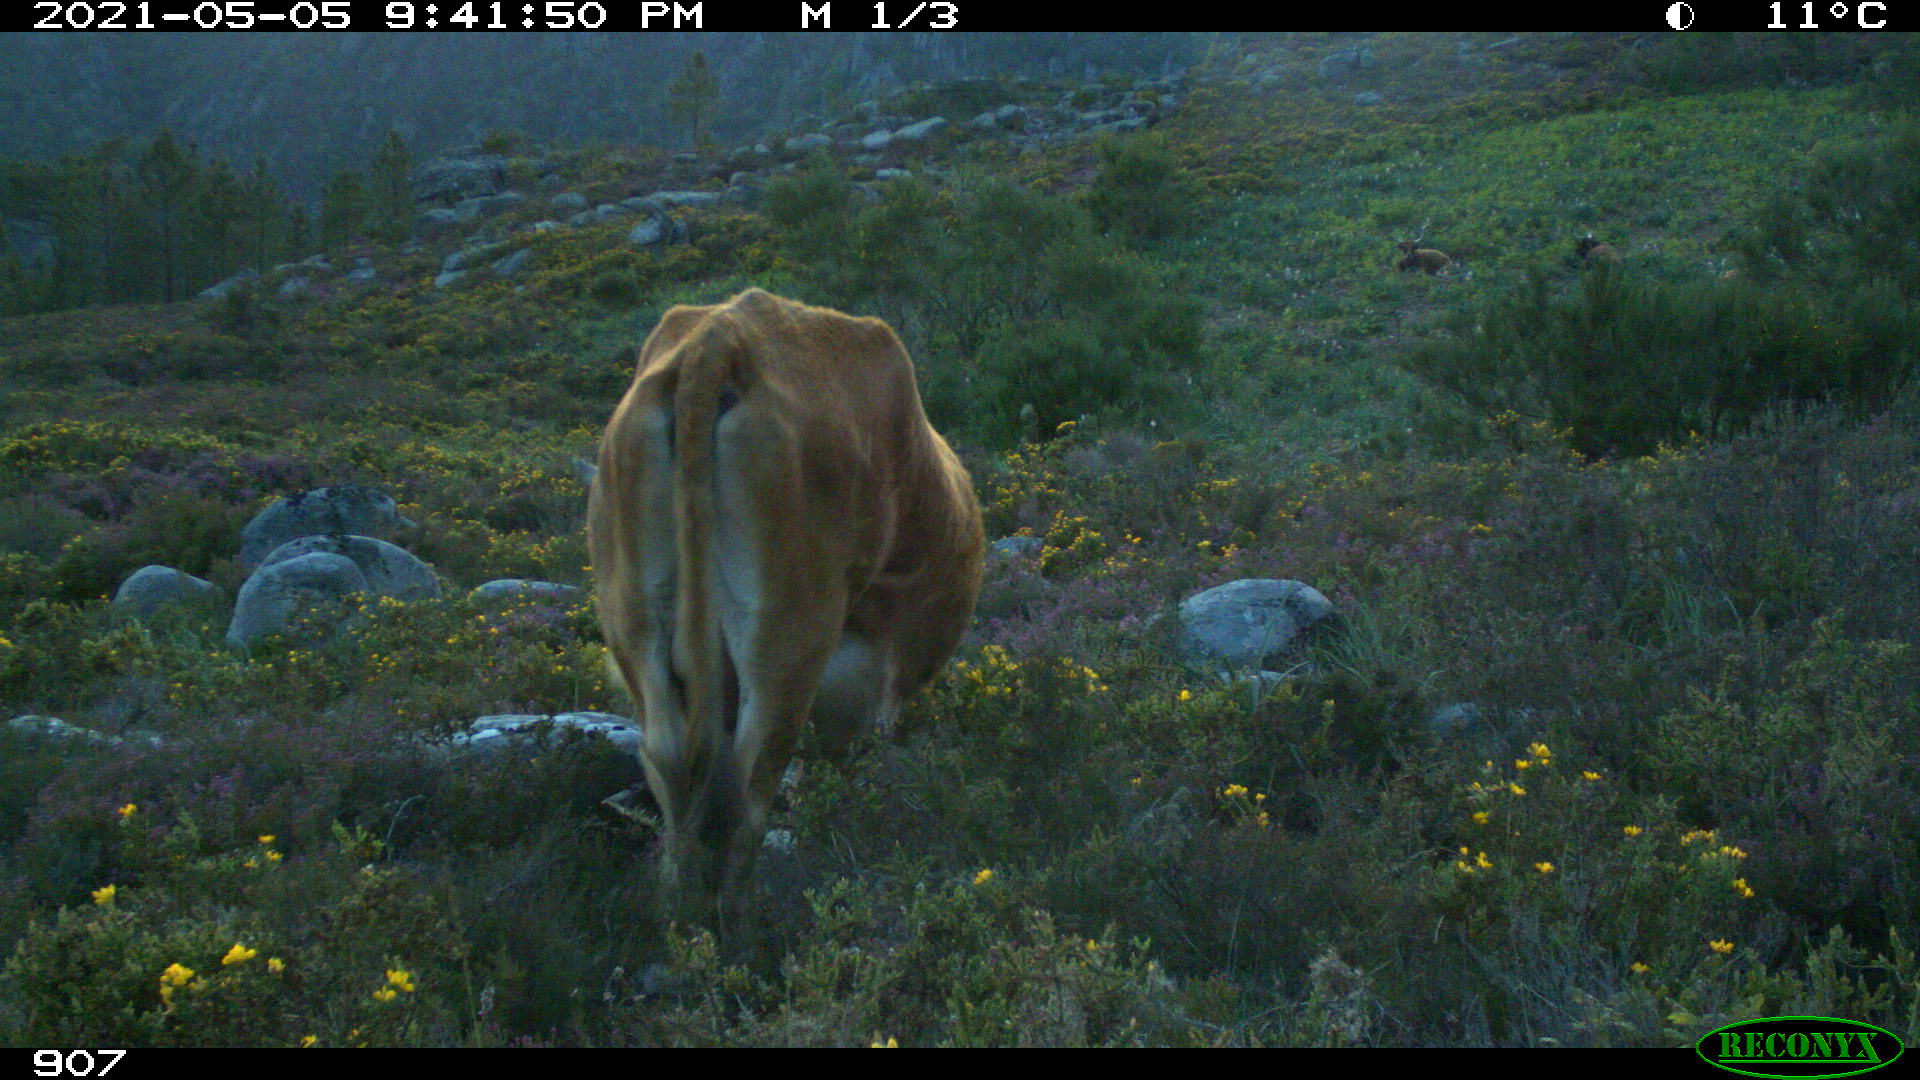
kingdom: Animalia
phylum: Chordata
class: Mammalia
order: Artiodactyla
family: Bovidae
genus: Bos
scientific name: Bos taurus
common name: Domesticated cattle
